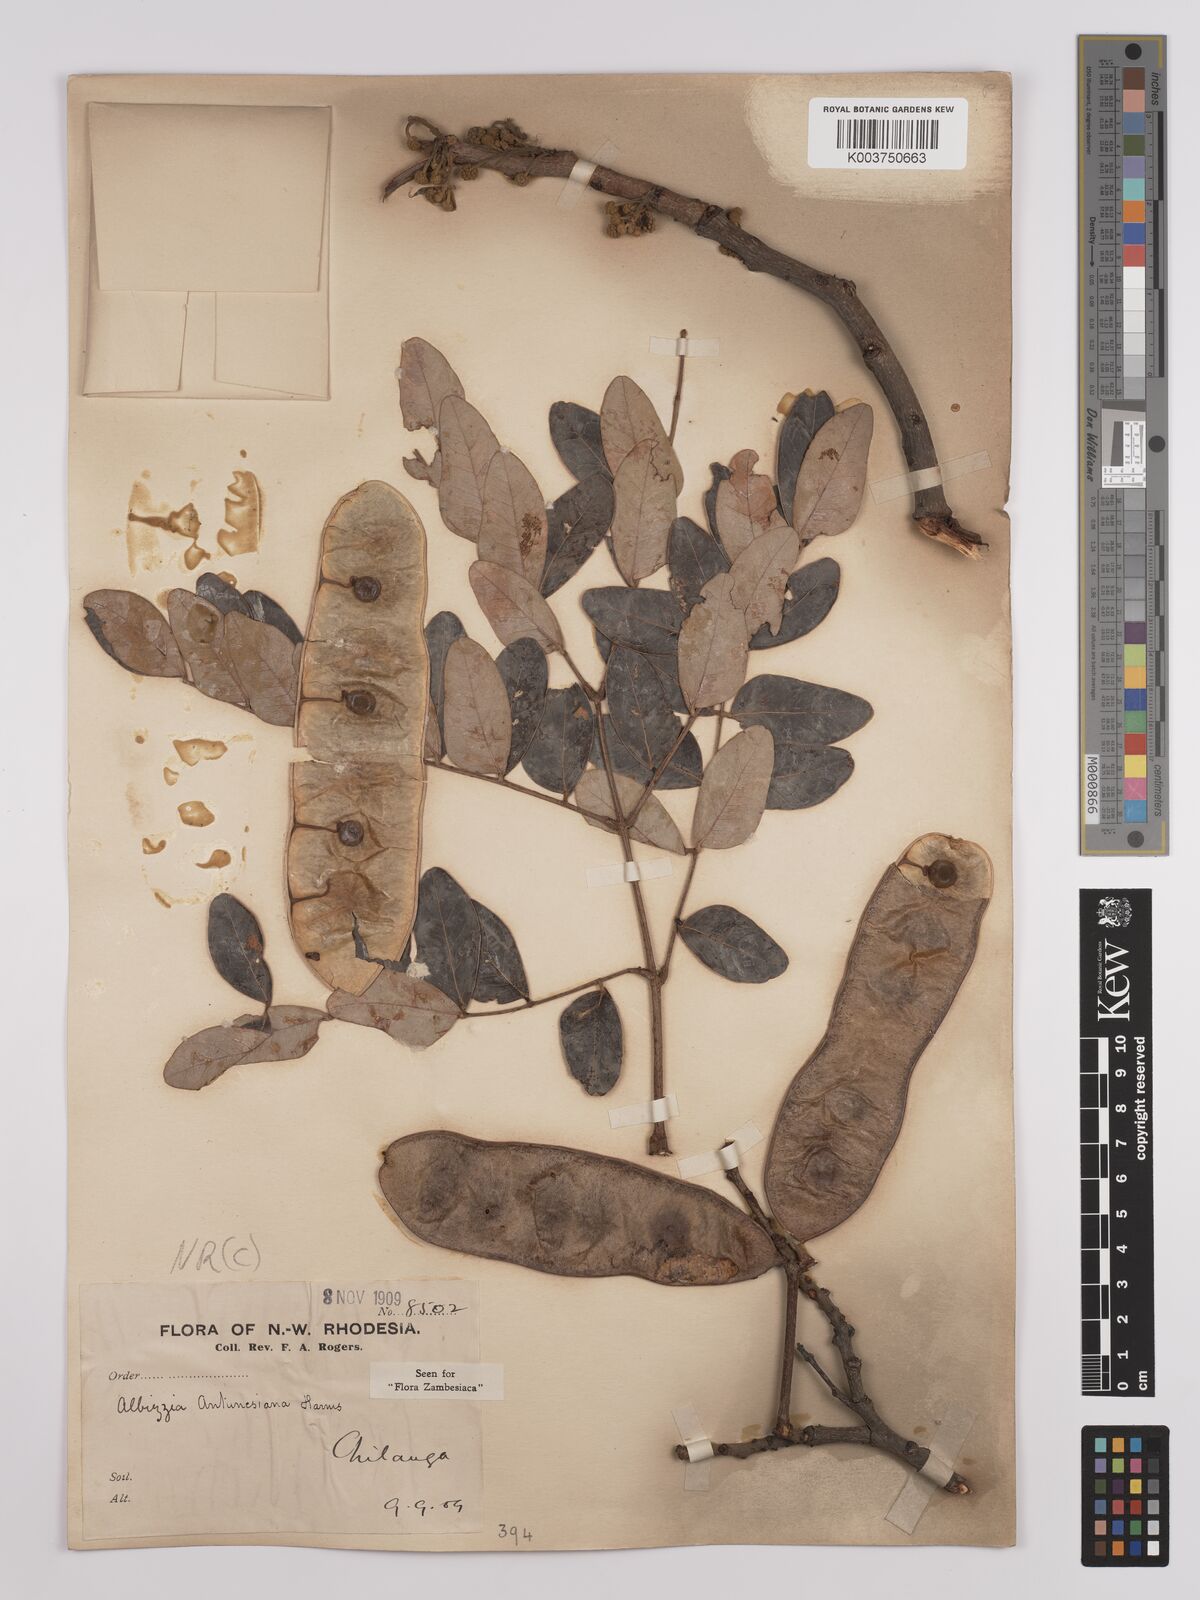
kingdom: Plantae
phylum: Tracheophyta
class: Magnoliopsida
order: Fabales
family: Fabaceae
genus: Albizia
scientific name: Albizia antunesiana
